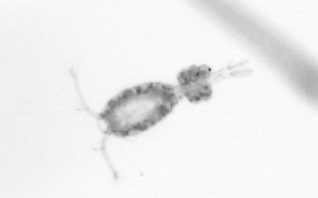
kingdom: Animalia
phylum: Arthropoda
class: Copepoda
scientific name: Copepoda
